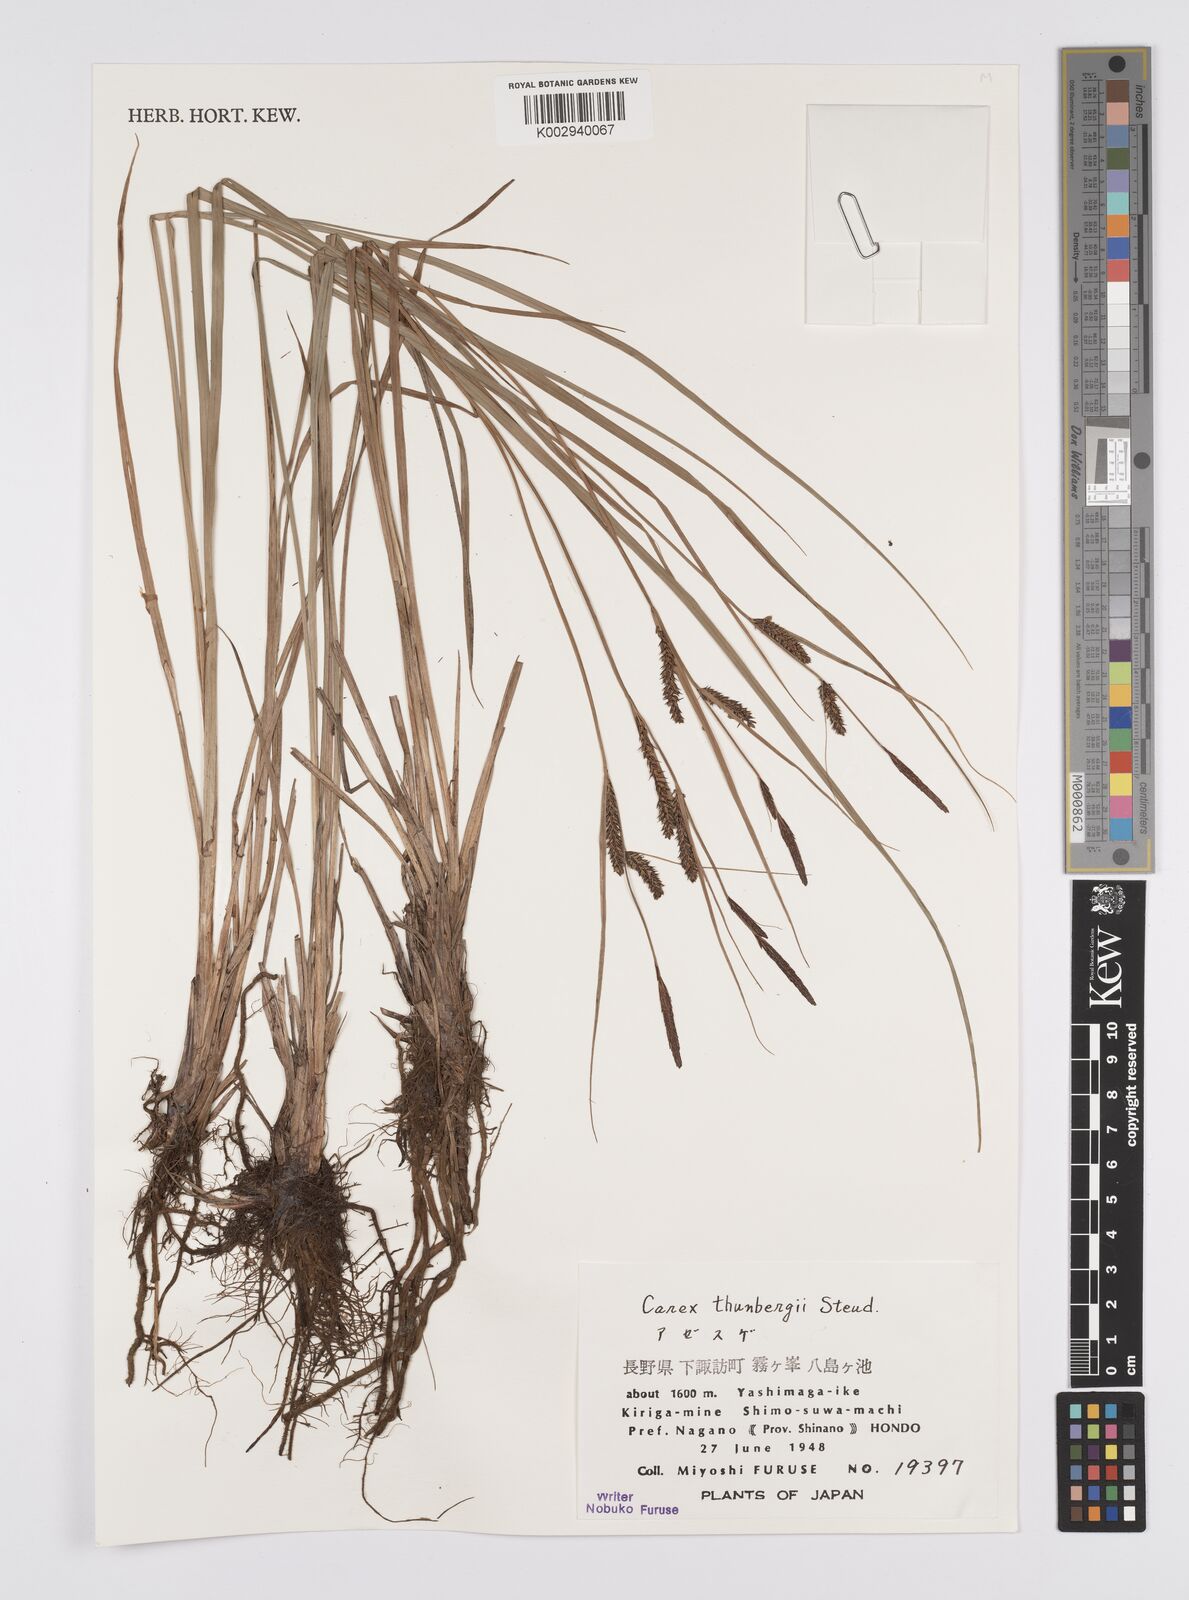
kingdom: Plantae
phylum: Tracheophyta
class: Liliopsida
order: Poales
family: Cyperaceae
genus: Carex
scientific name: Carex thunbergii
